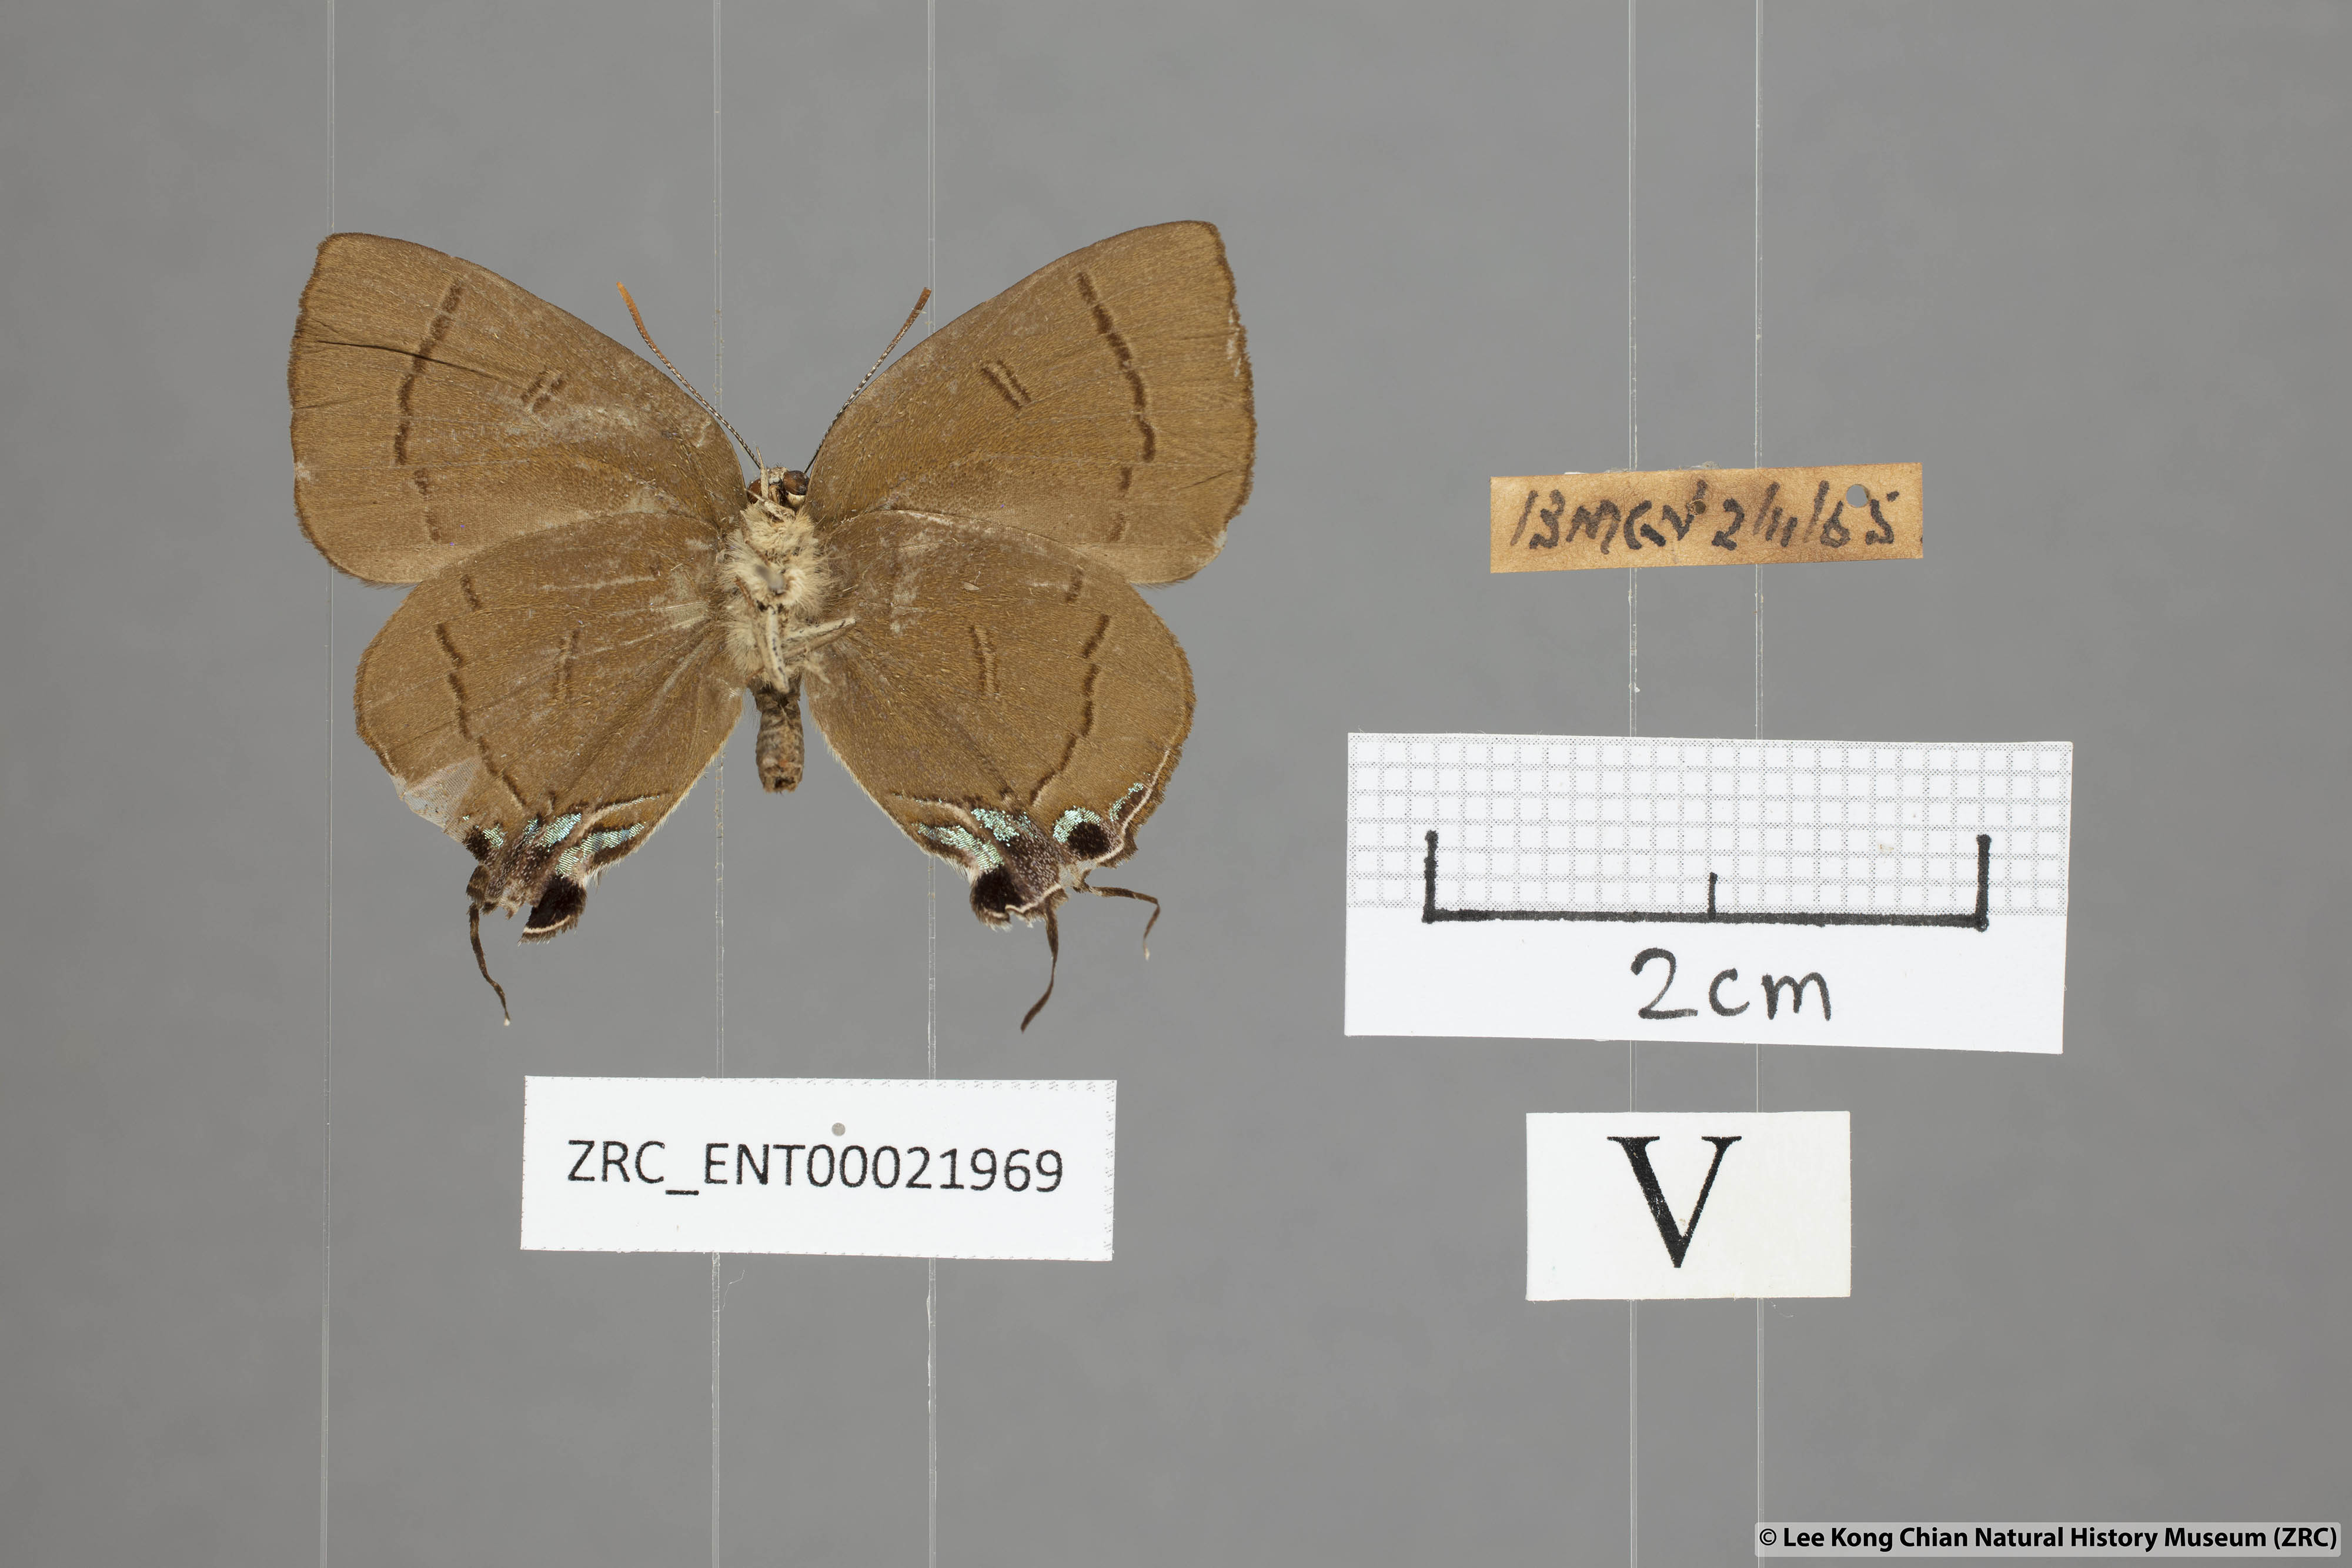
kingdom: Animalia
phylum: Arthropoda
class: Insecta
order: Lepidoptera
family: Lycaenidae
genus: Remelana
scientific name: Remelana jangala
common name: Chocolate royal
